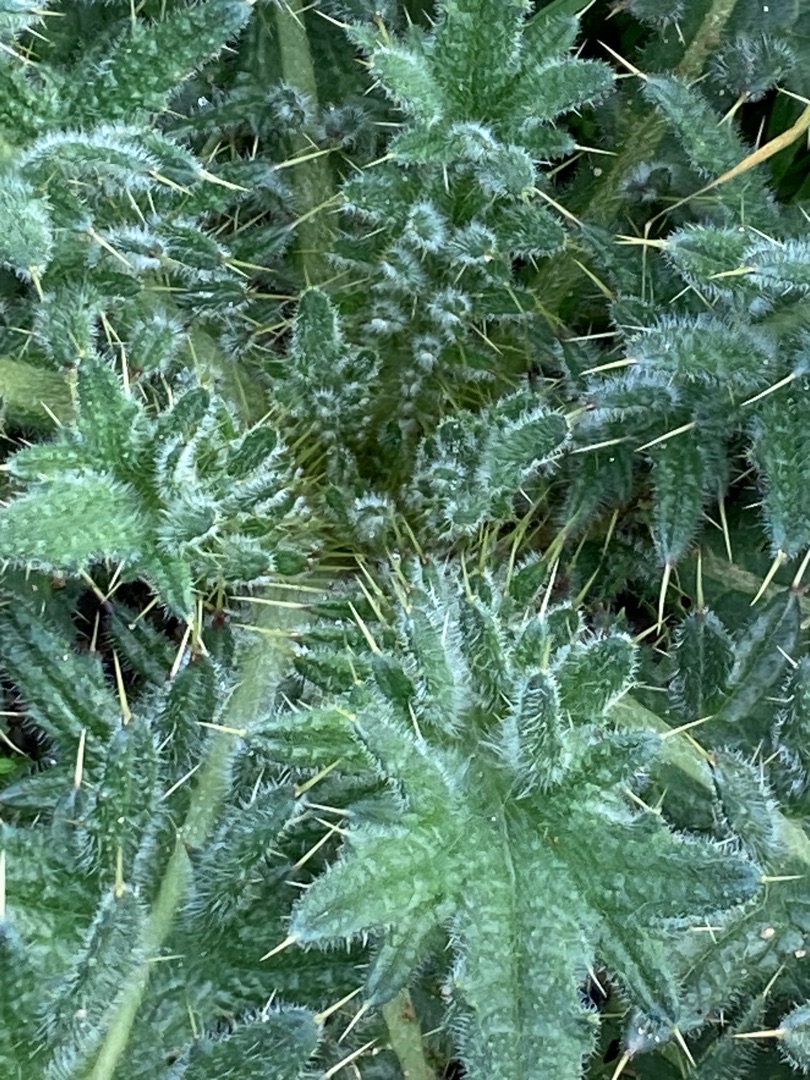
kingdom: Plantae
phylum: Tracheophyta
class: Magnoliopsida
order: Asterales
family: Asteraceae
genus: Cirsium
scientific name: Cirsium vulgare
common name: Horse-tidsel
